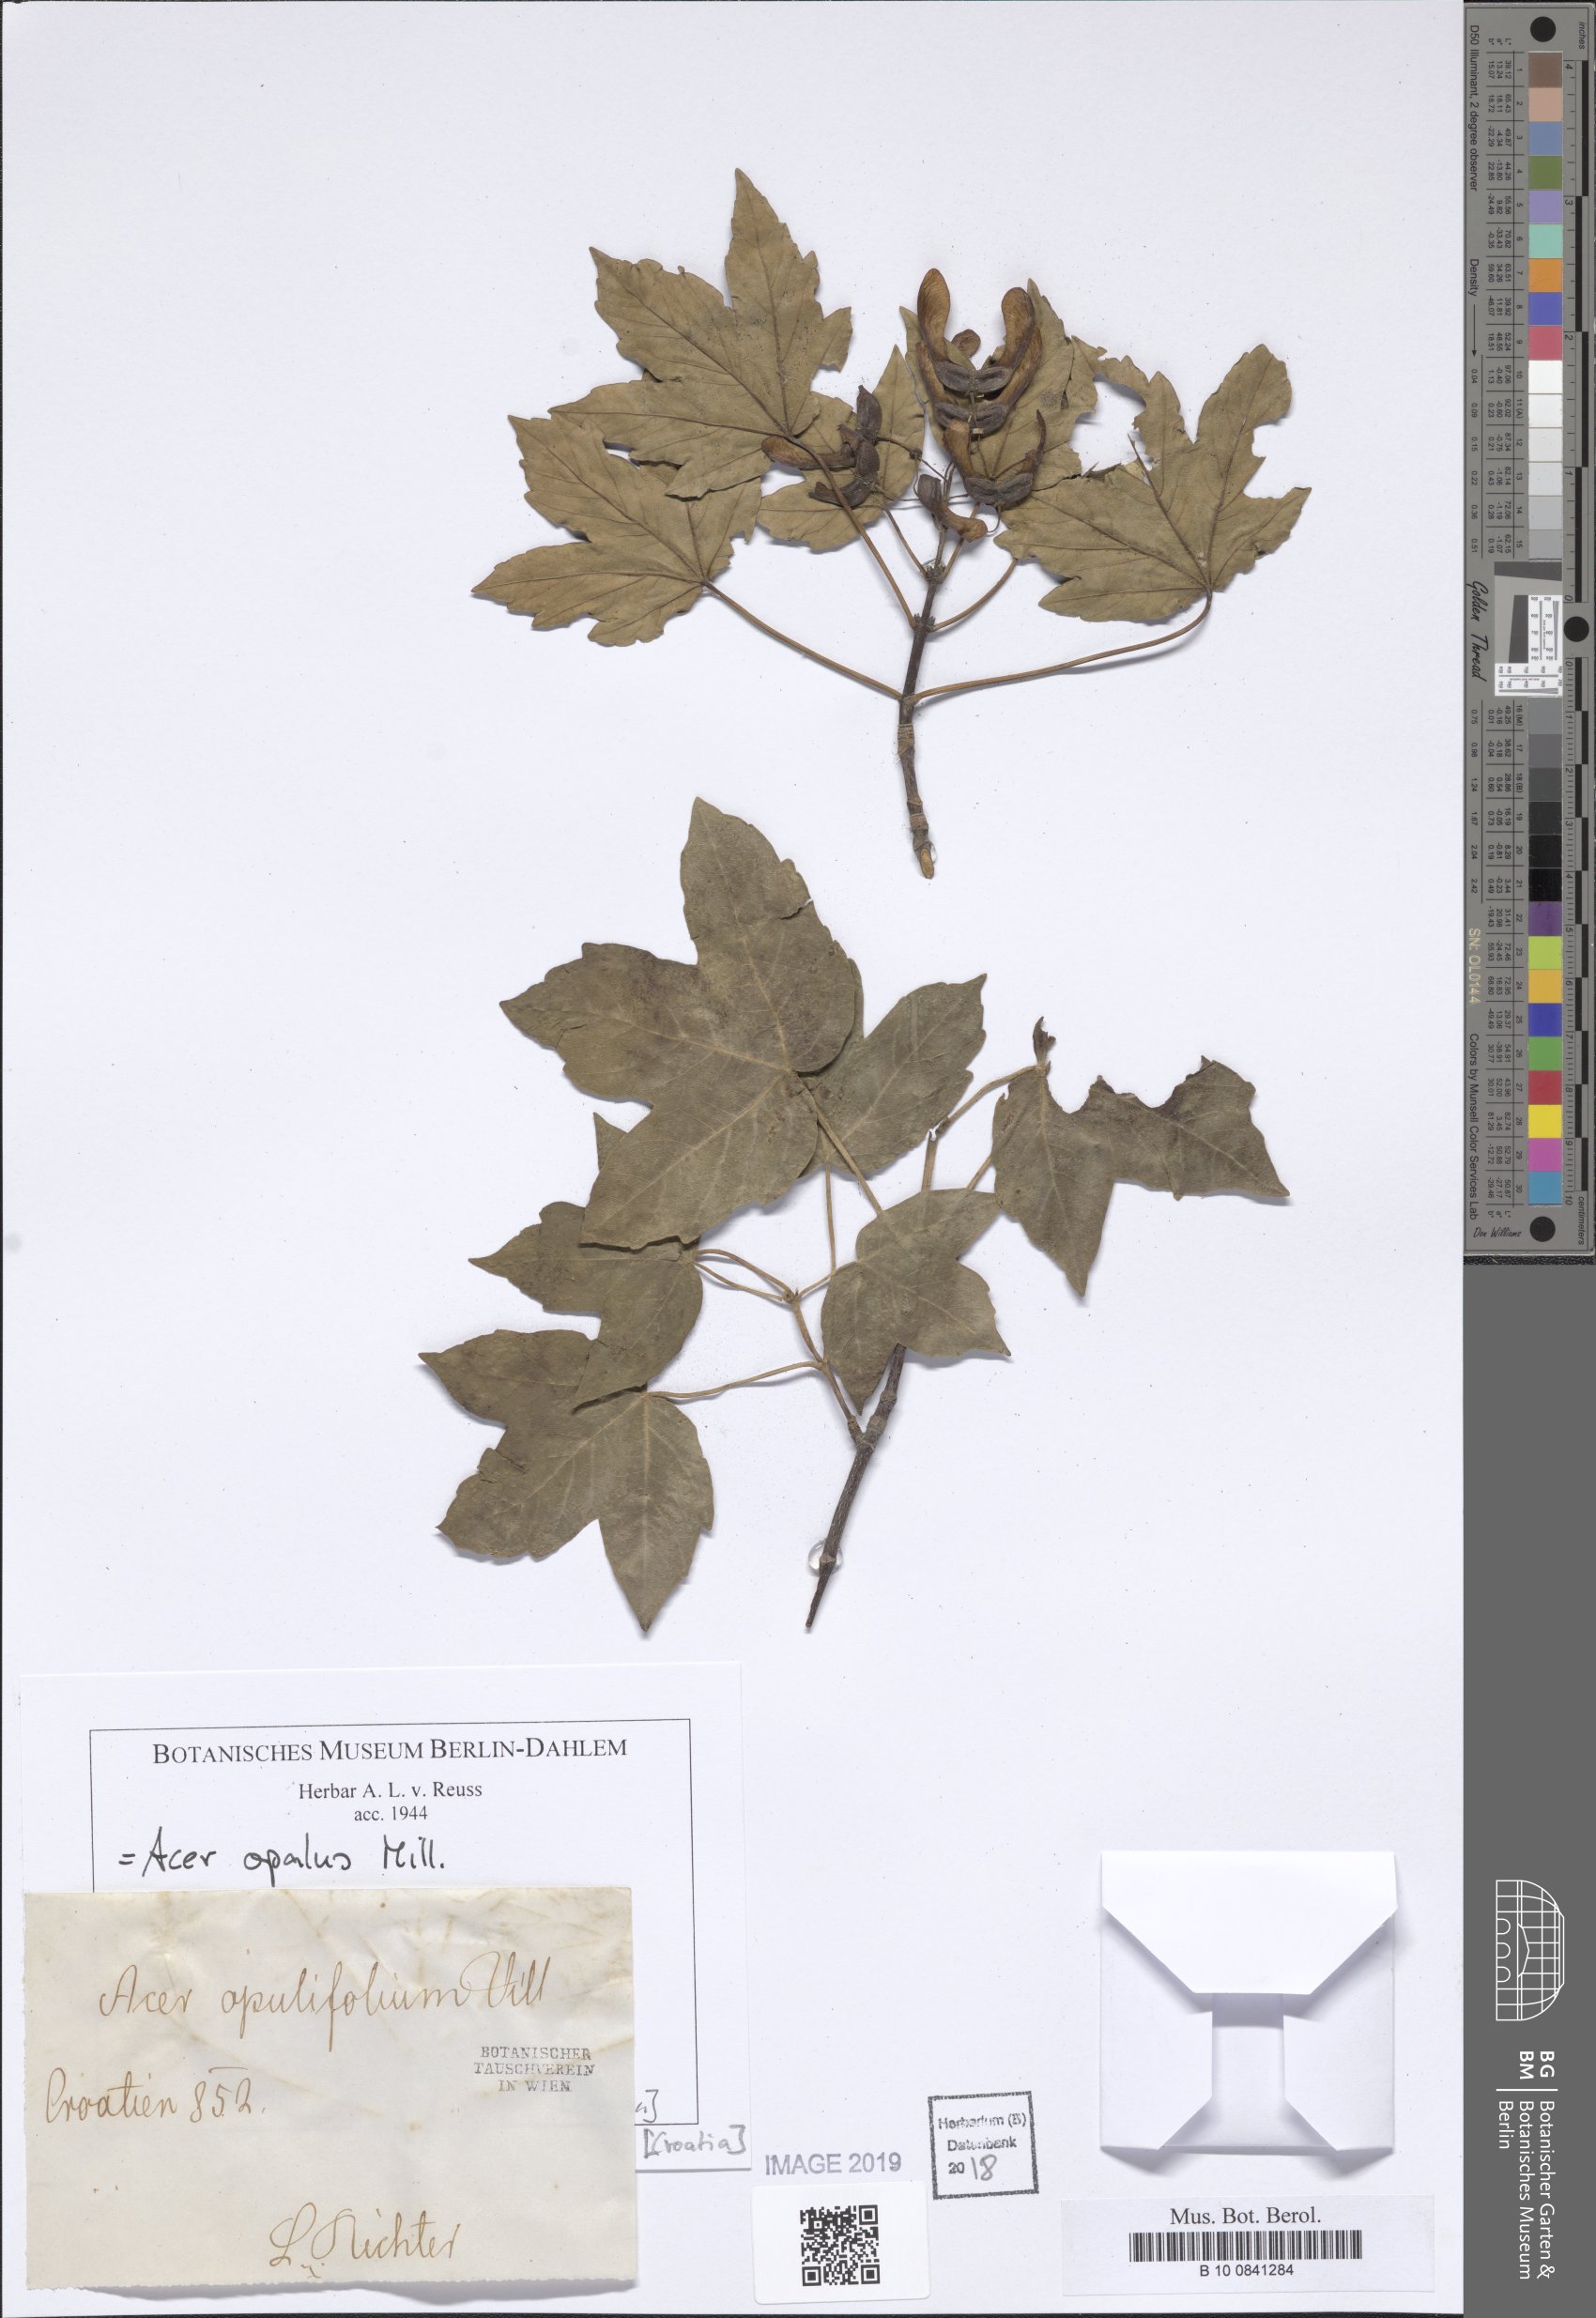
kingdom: Plantae
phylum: Tracheophyta
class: Magnoliopsida
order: Sapindales
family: Sapindaceae
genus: Acer
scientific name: Acer opalus
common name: Italian maple
